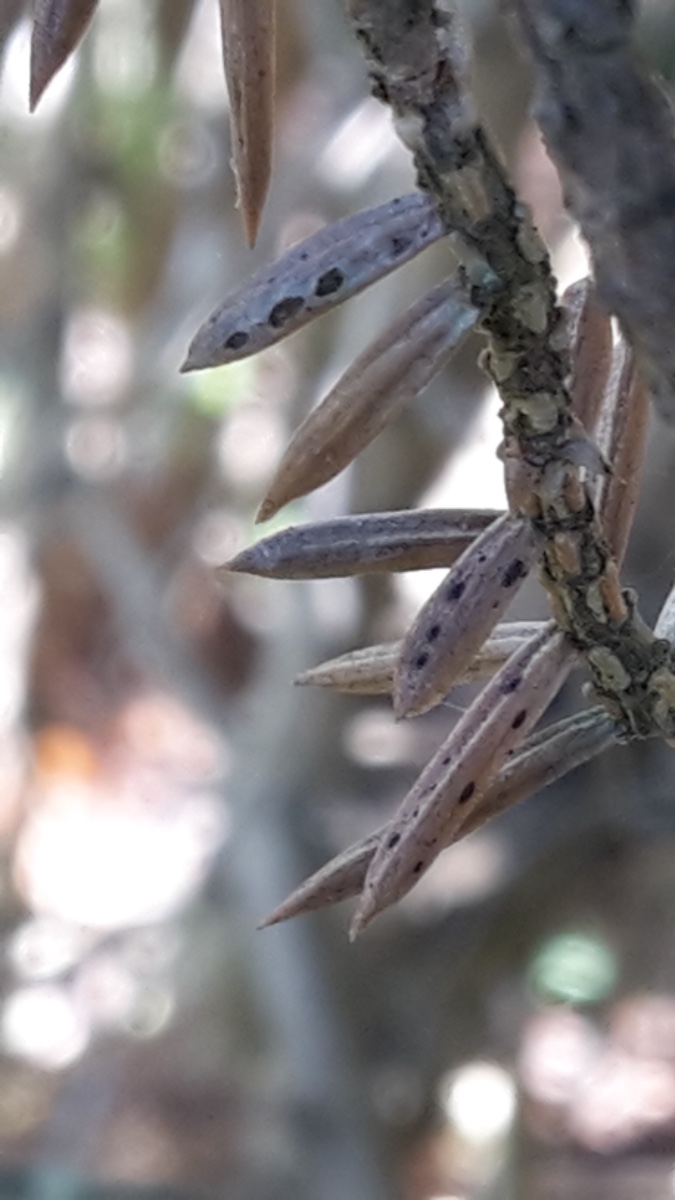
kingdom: Fungi
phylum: Ascomycota
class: Leotiomycetes
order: Rhytismatales
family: Rhytismataceae
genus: Lophodermium
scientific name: Lophodermium juniperinum
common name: ene-fureplet
